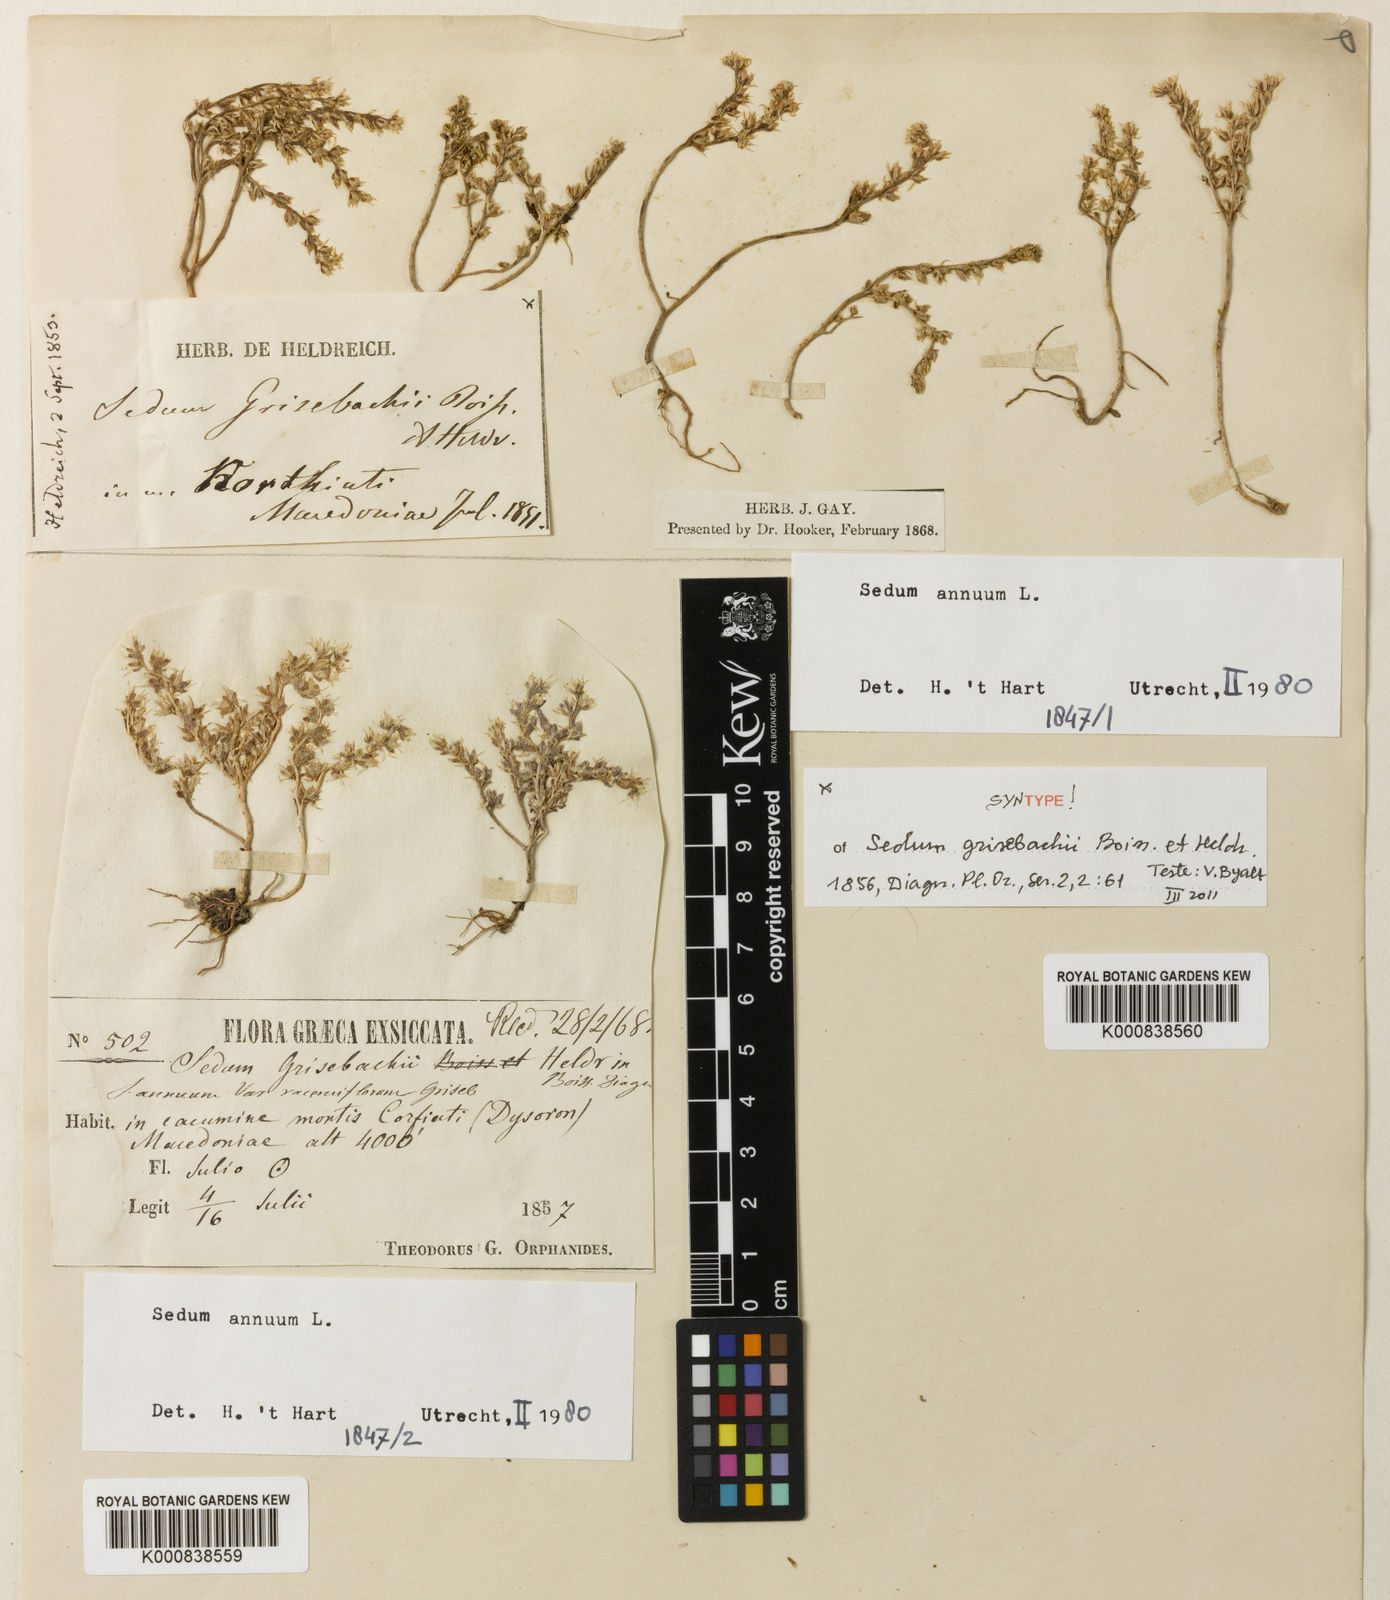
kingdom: Plantae
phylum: Tracheophyta
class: Magnoliopsida
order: Saxifragales
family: Crassulaceae
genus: Sedum
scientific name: Sedum annuum
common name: Annual stonecrop
